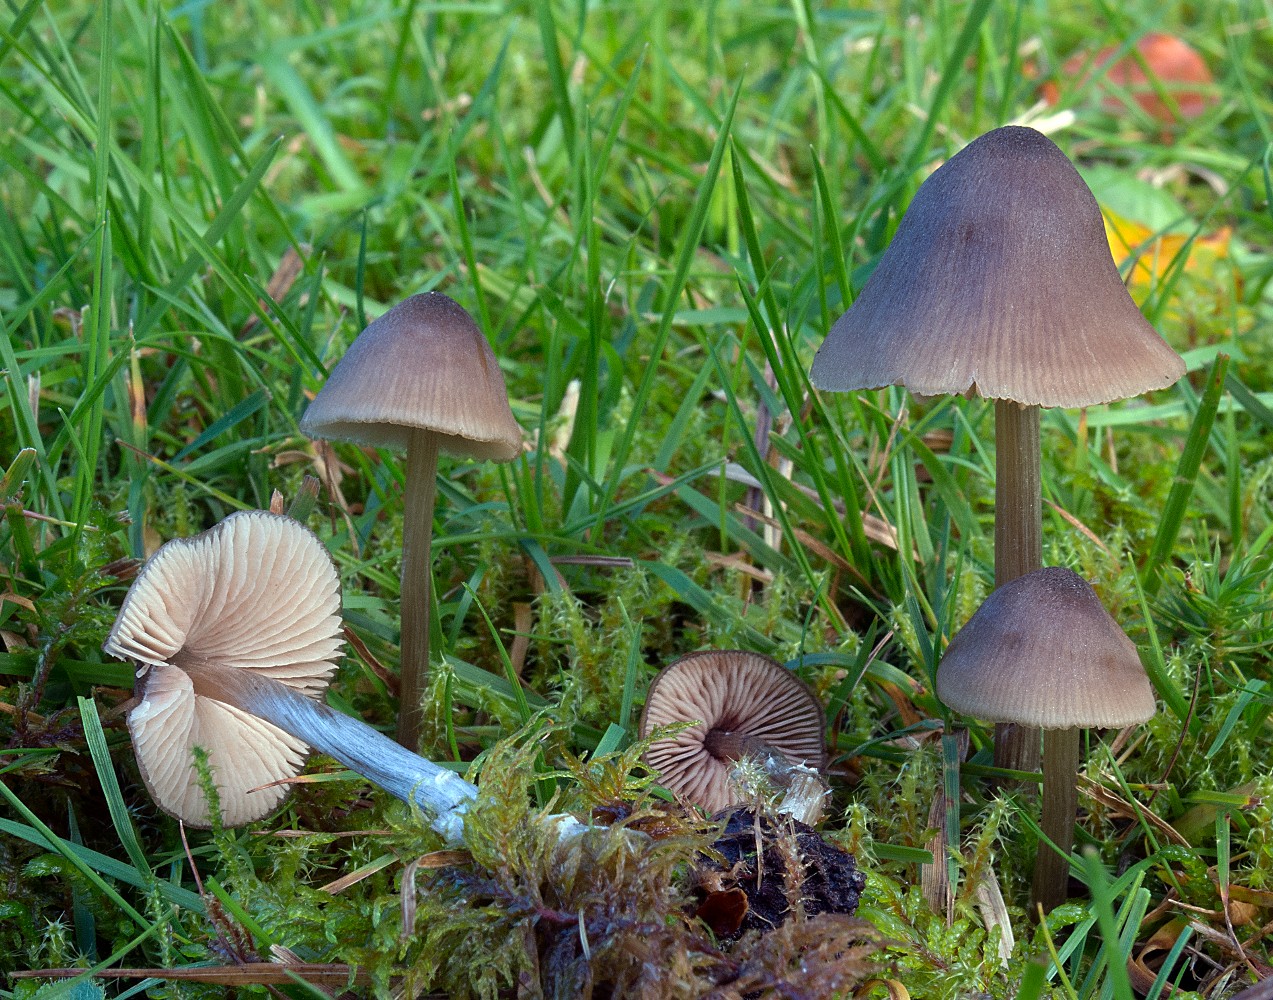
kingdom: Fungi
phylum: Basidiomycota
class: Agaricomycetes
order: Agaricales
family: Entolomataceae
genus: Entoloma
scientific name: Entoloma conferendum
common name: stjernesporet rødblad
